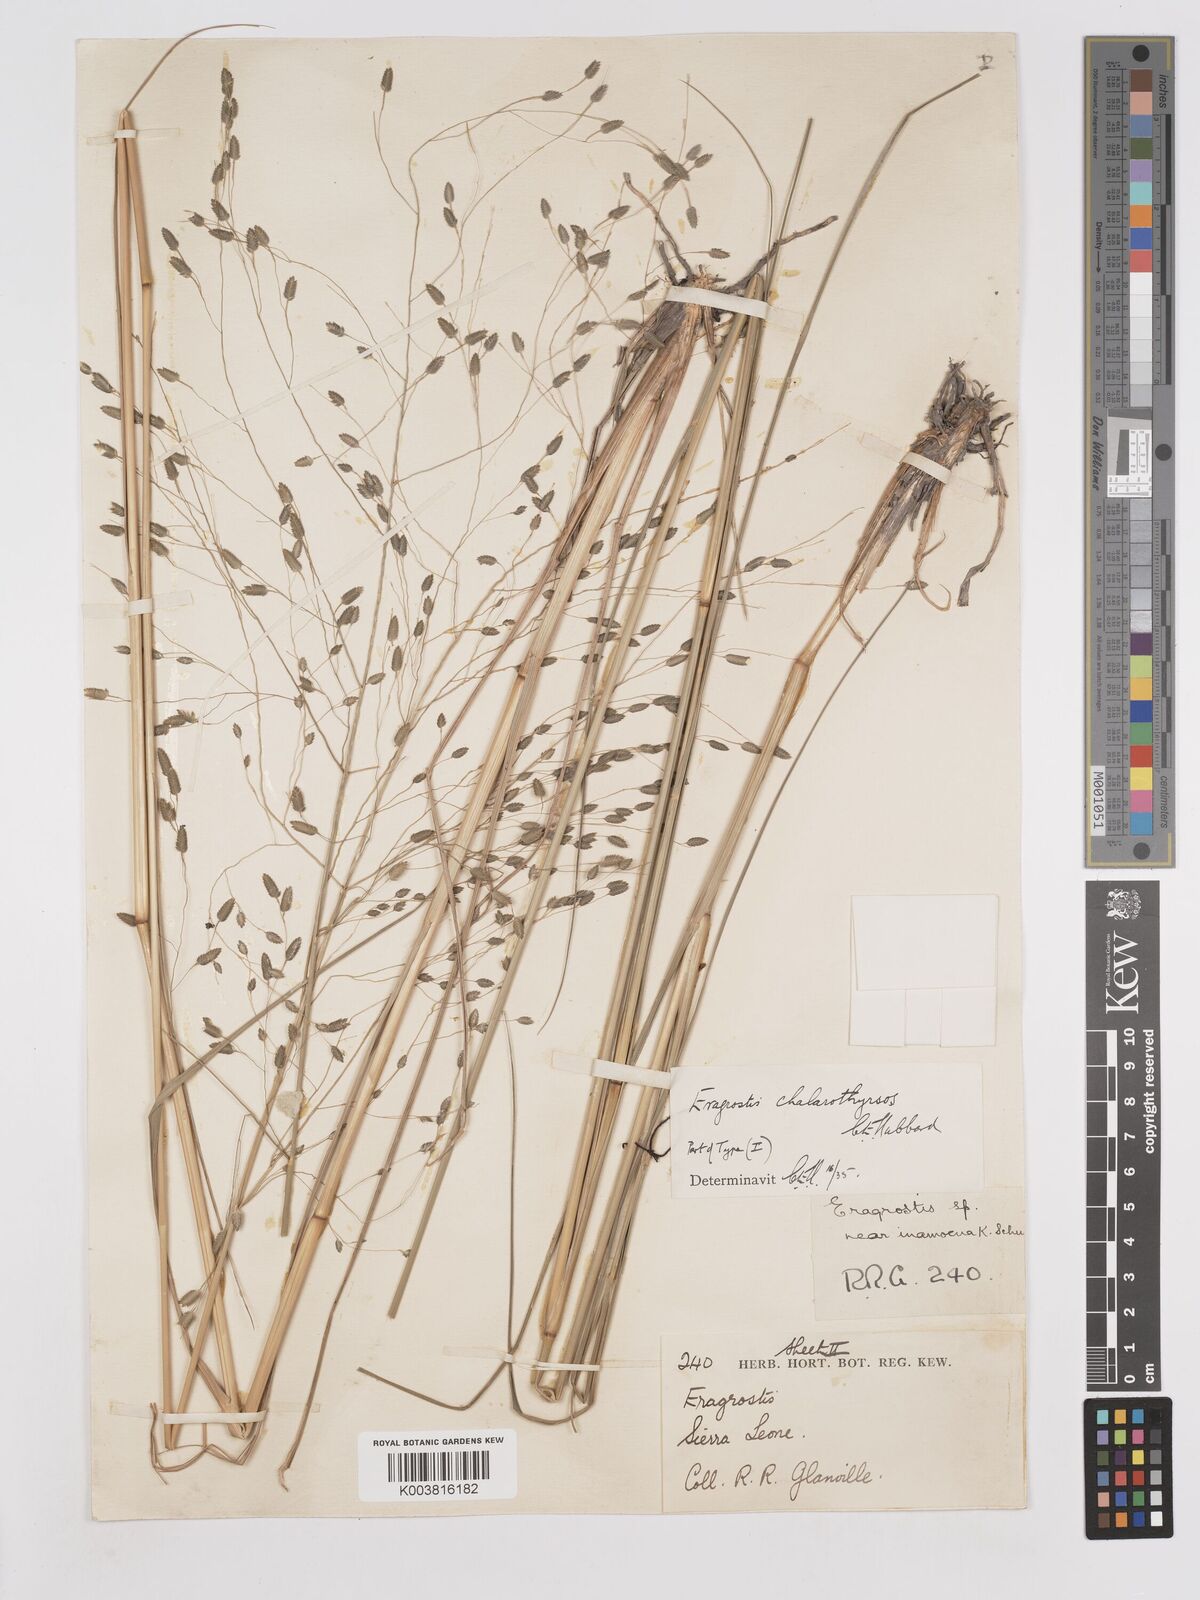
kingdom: Plantae
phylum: Tracheophyta
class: Liliopsida
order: Poales
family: Poaceae
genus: Eragrostis
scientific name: Eragrostis chalarothyrsos
